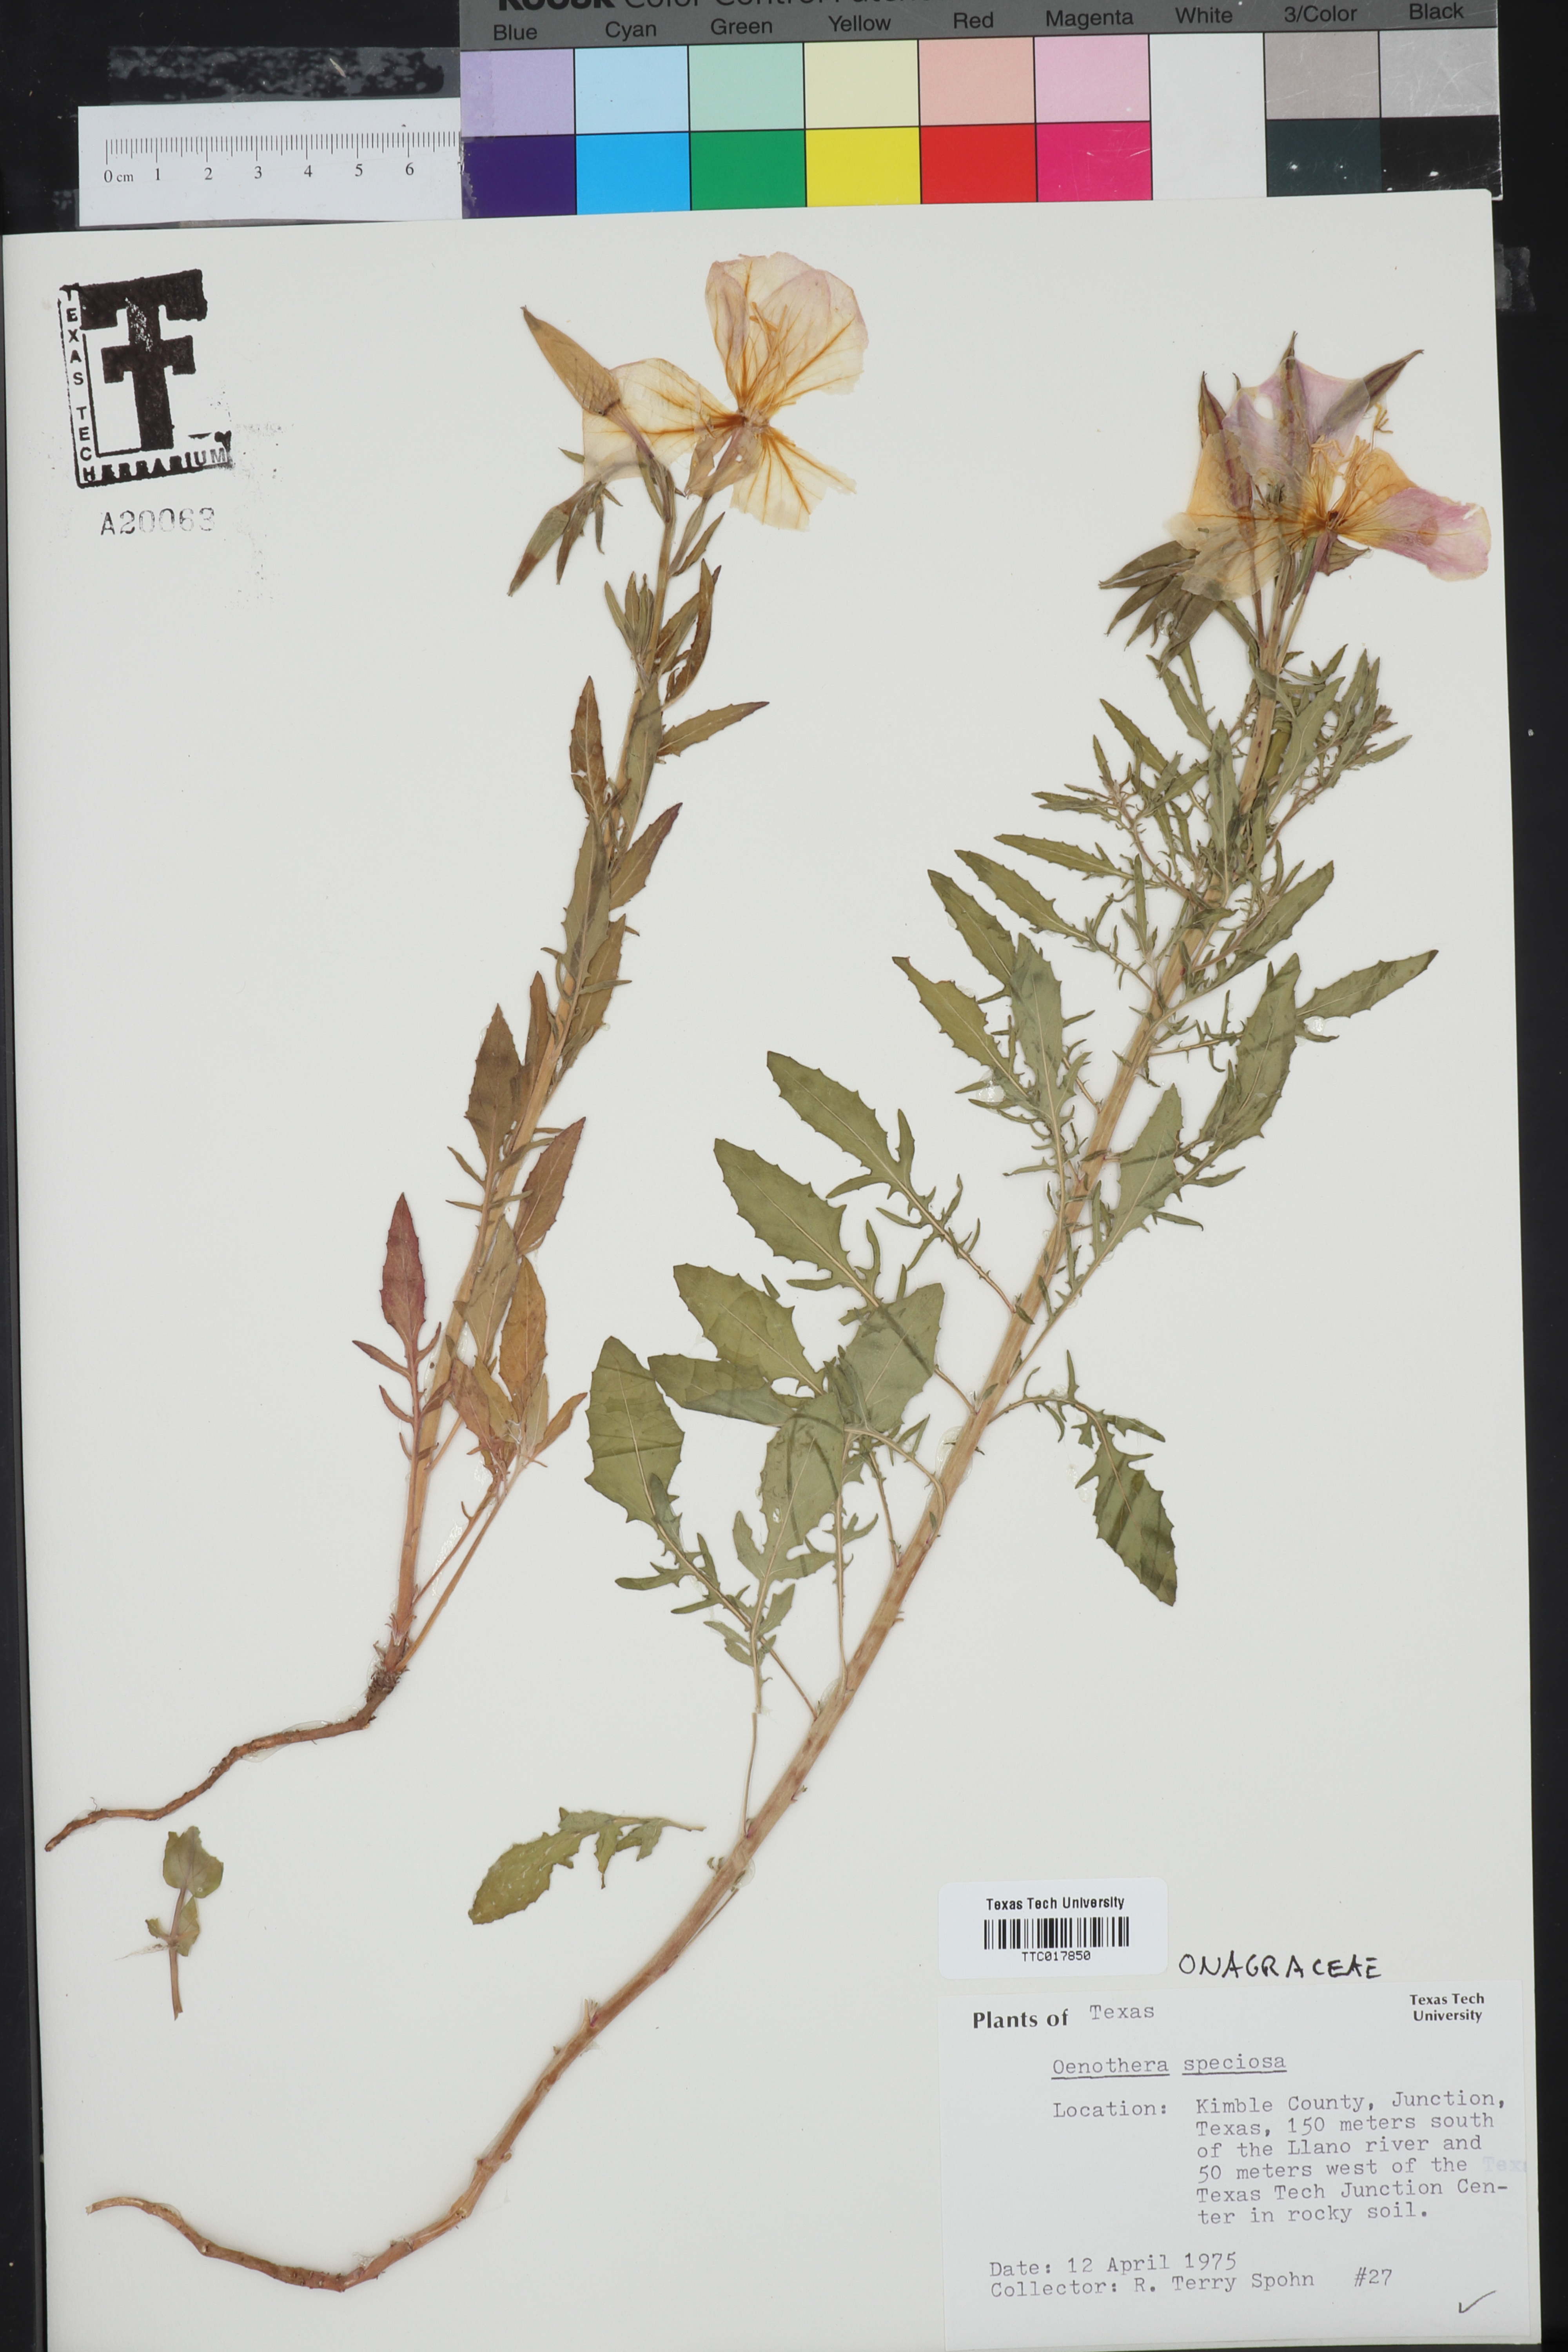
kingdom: Plantae
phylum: Tracheophyta
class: Magnoliopsida
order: Myrtales
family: Onagraceae
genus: Oenothera
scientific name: Oenothera speciosa
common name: White evening-primrose
